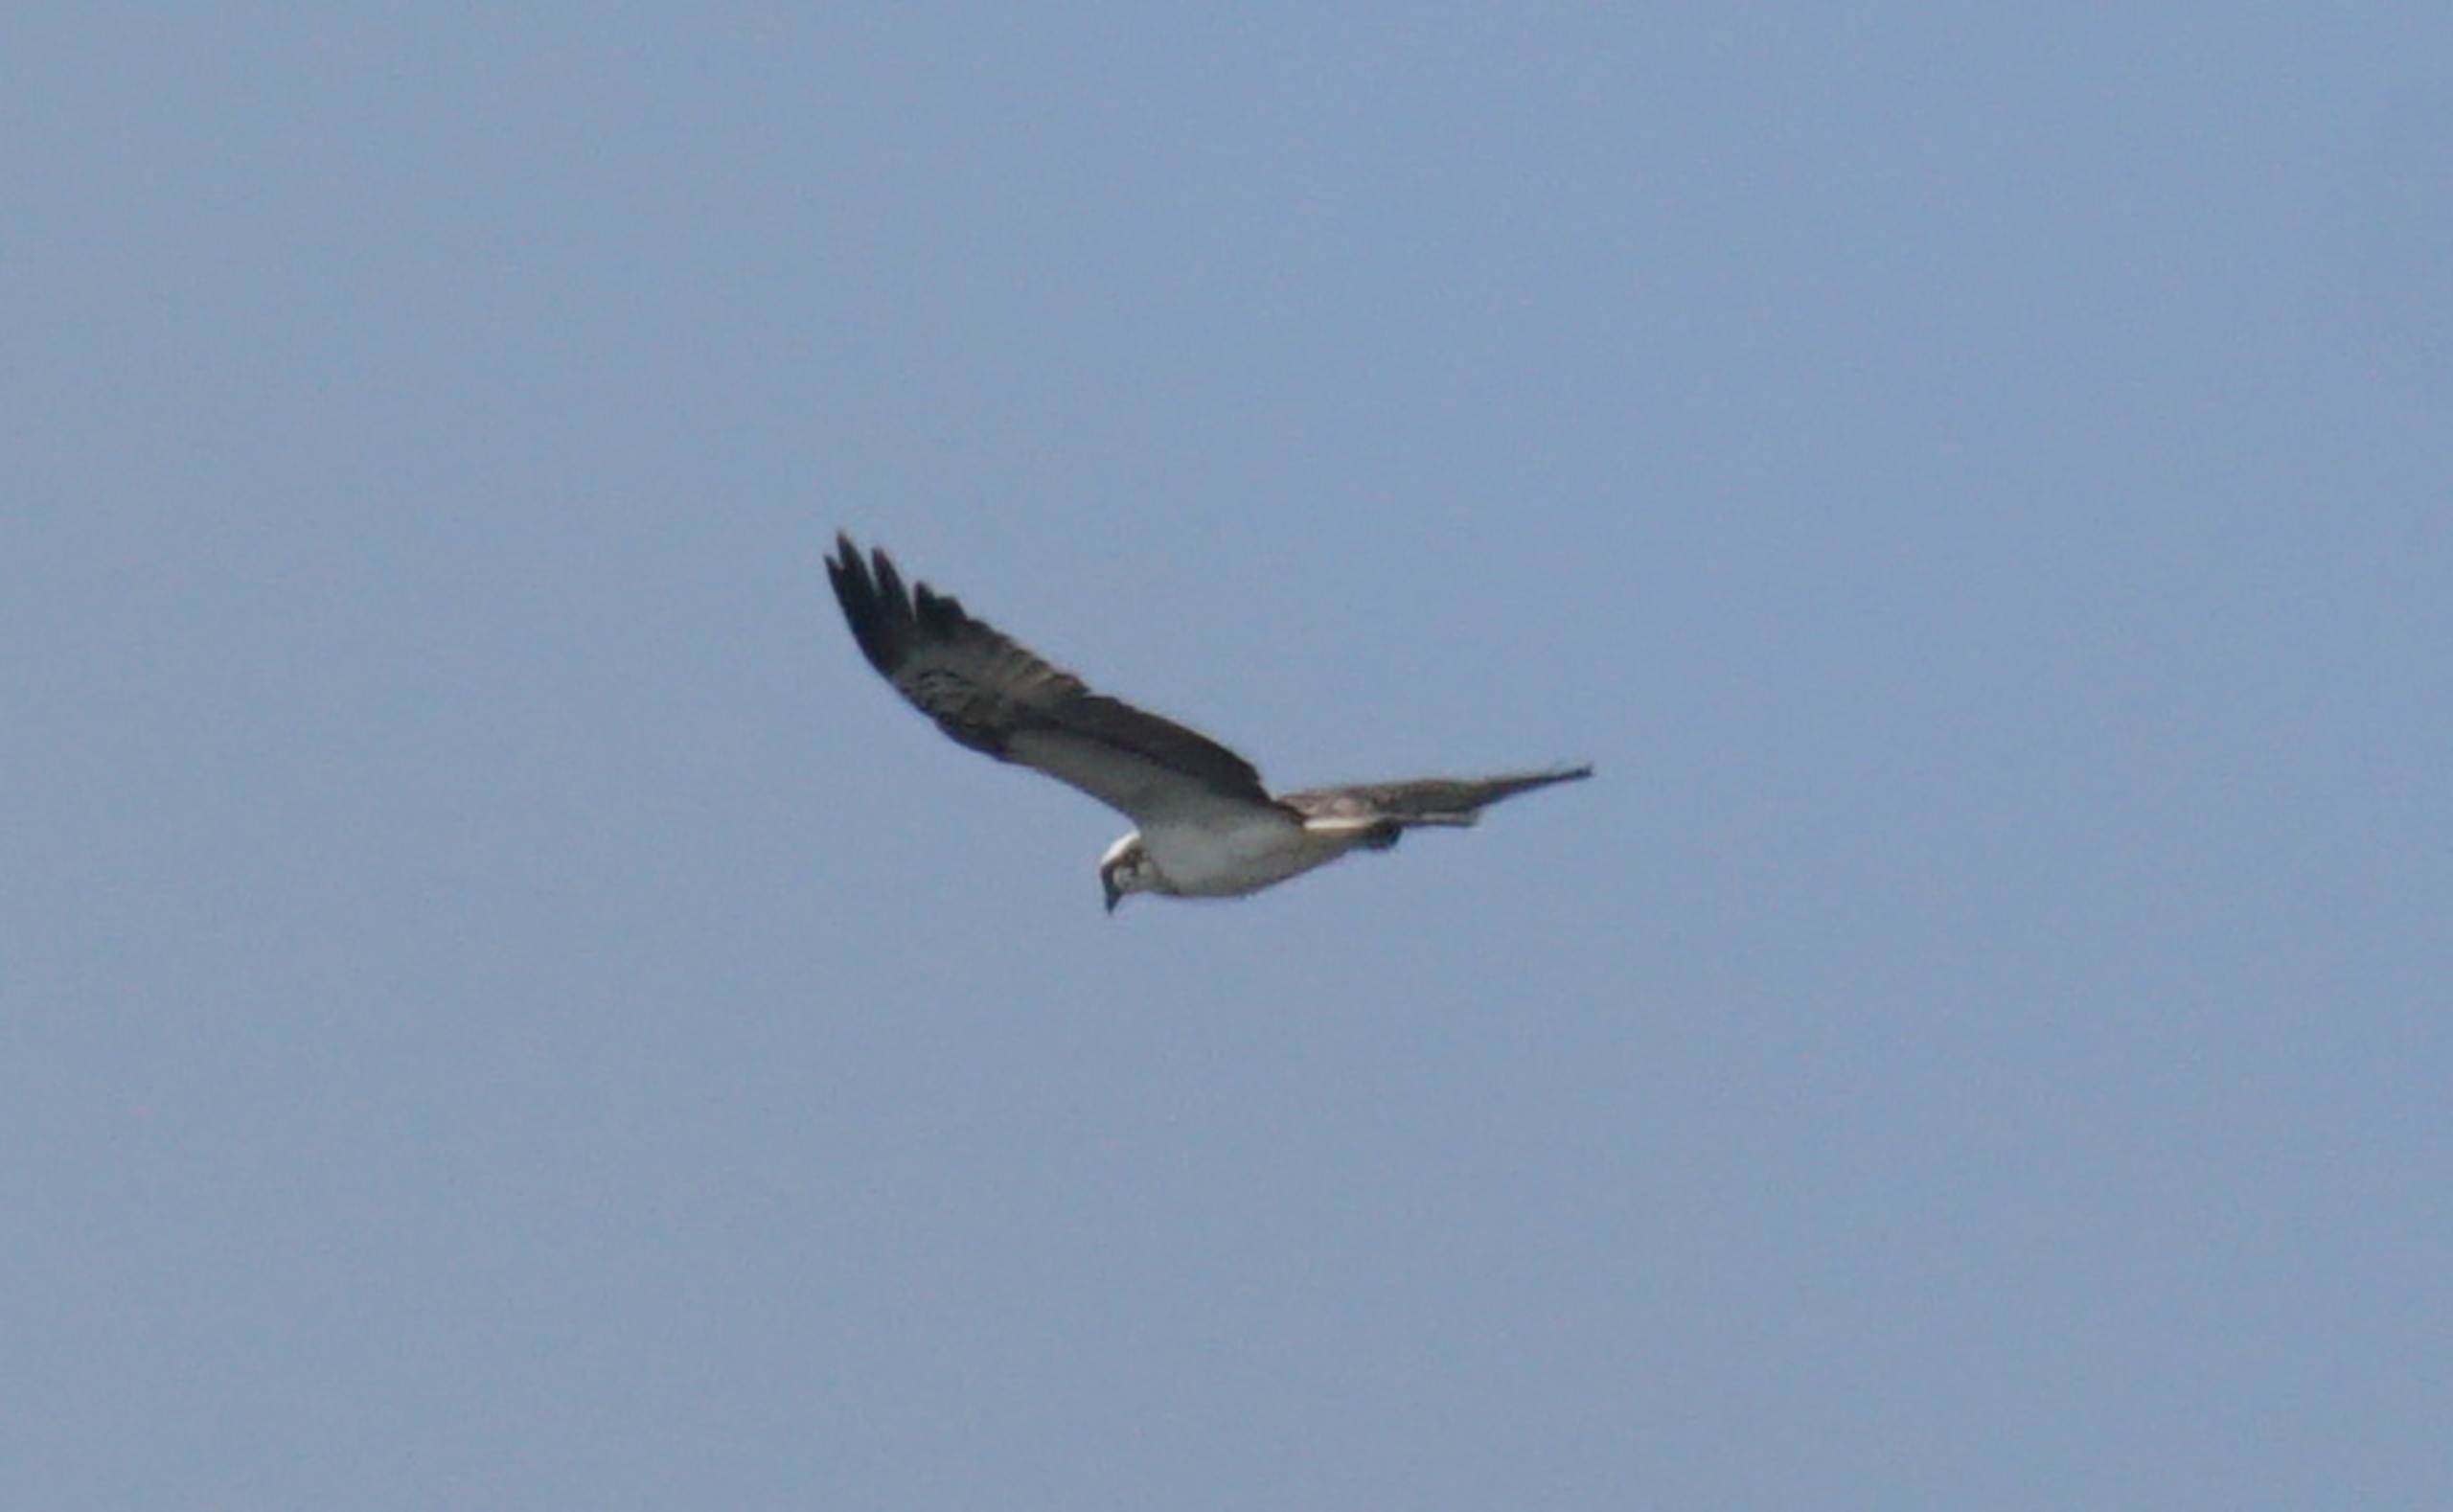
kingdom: Animalia
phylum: Chordata
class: Aves
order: Accipitriformes
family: Pandionidae
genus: Pandion
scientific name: Pandion haliaetus
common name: Fiskeørn
